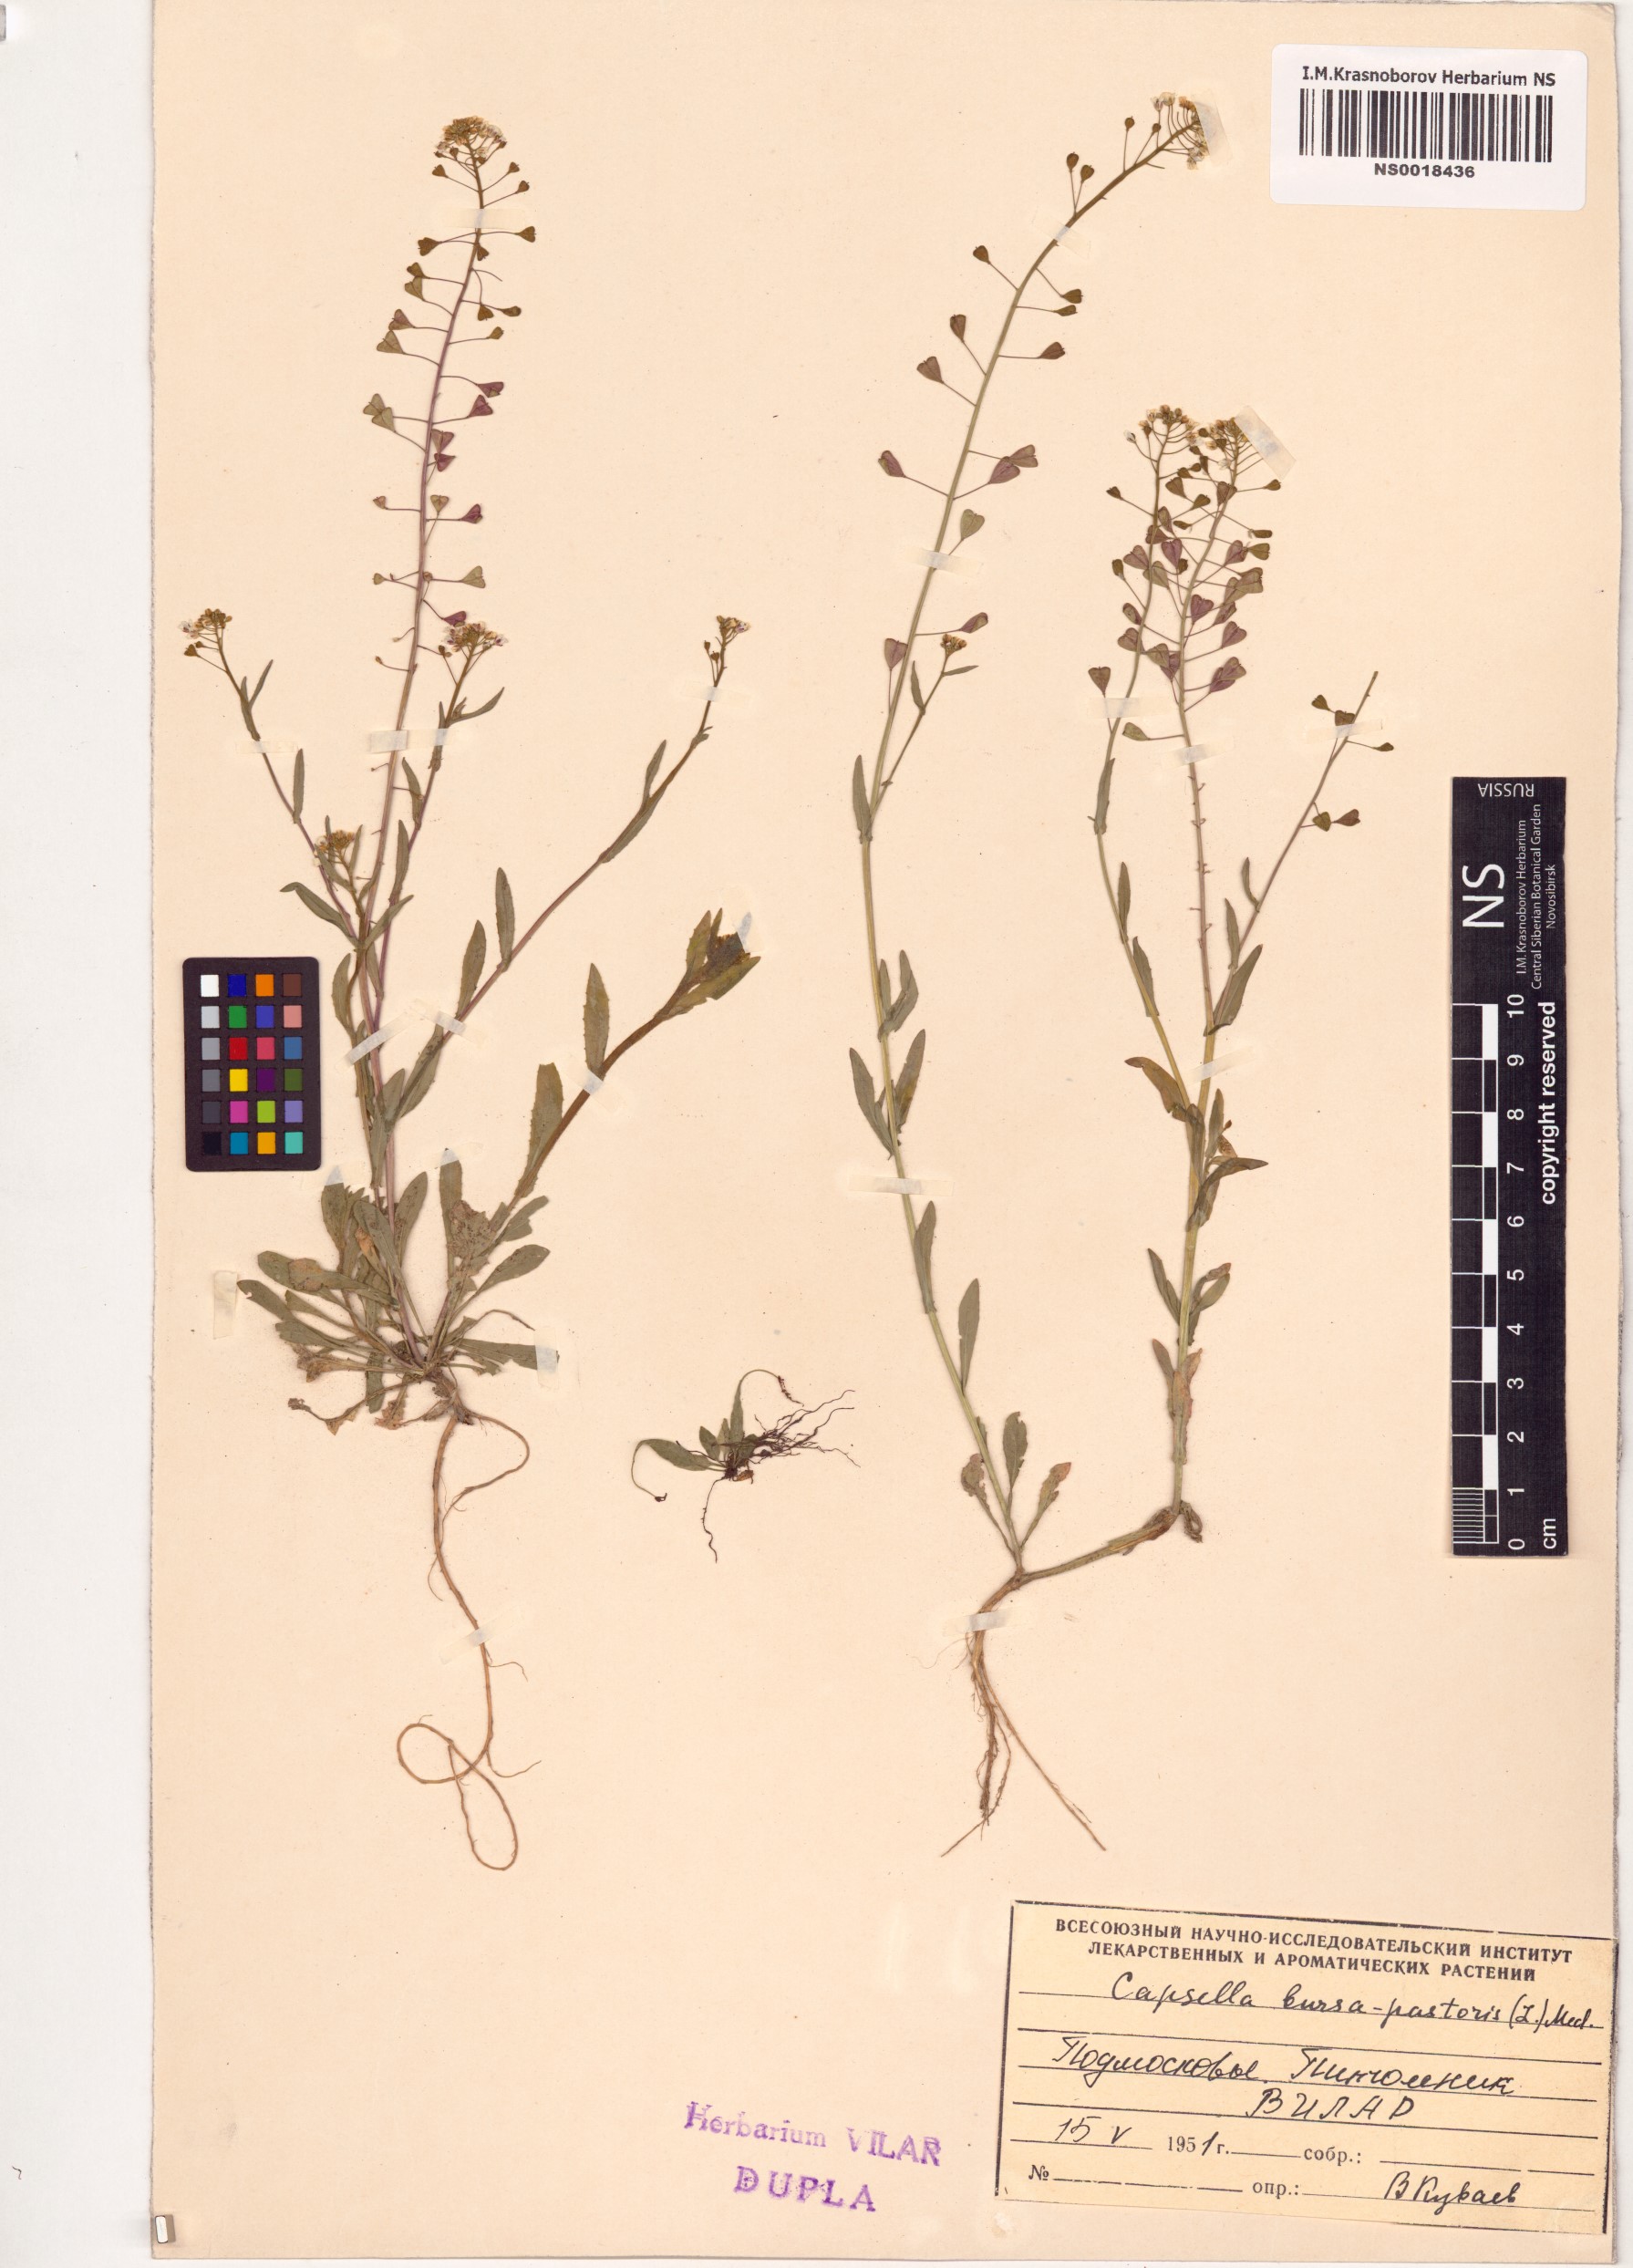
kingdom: Plantae
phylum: Tracheophyta
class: Magnoliopsida
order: Brassicales
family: Brassicaceae
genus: Capsella
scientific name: Capsella bursa-pastoris
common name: Shepherd's purse
